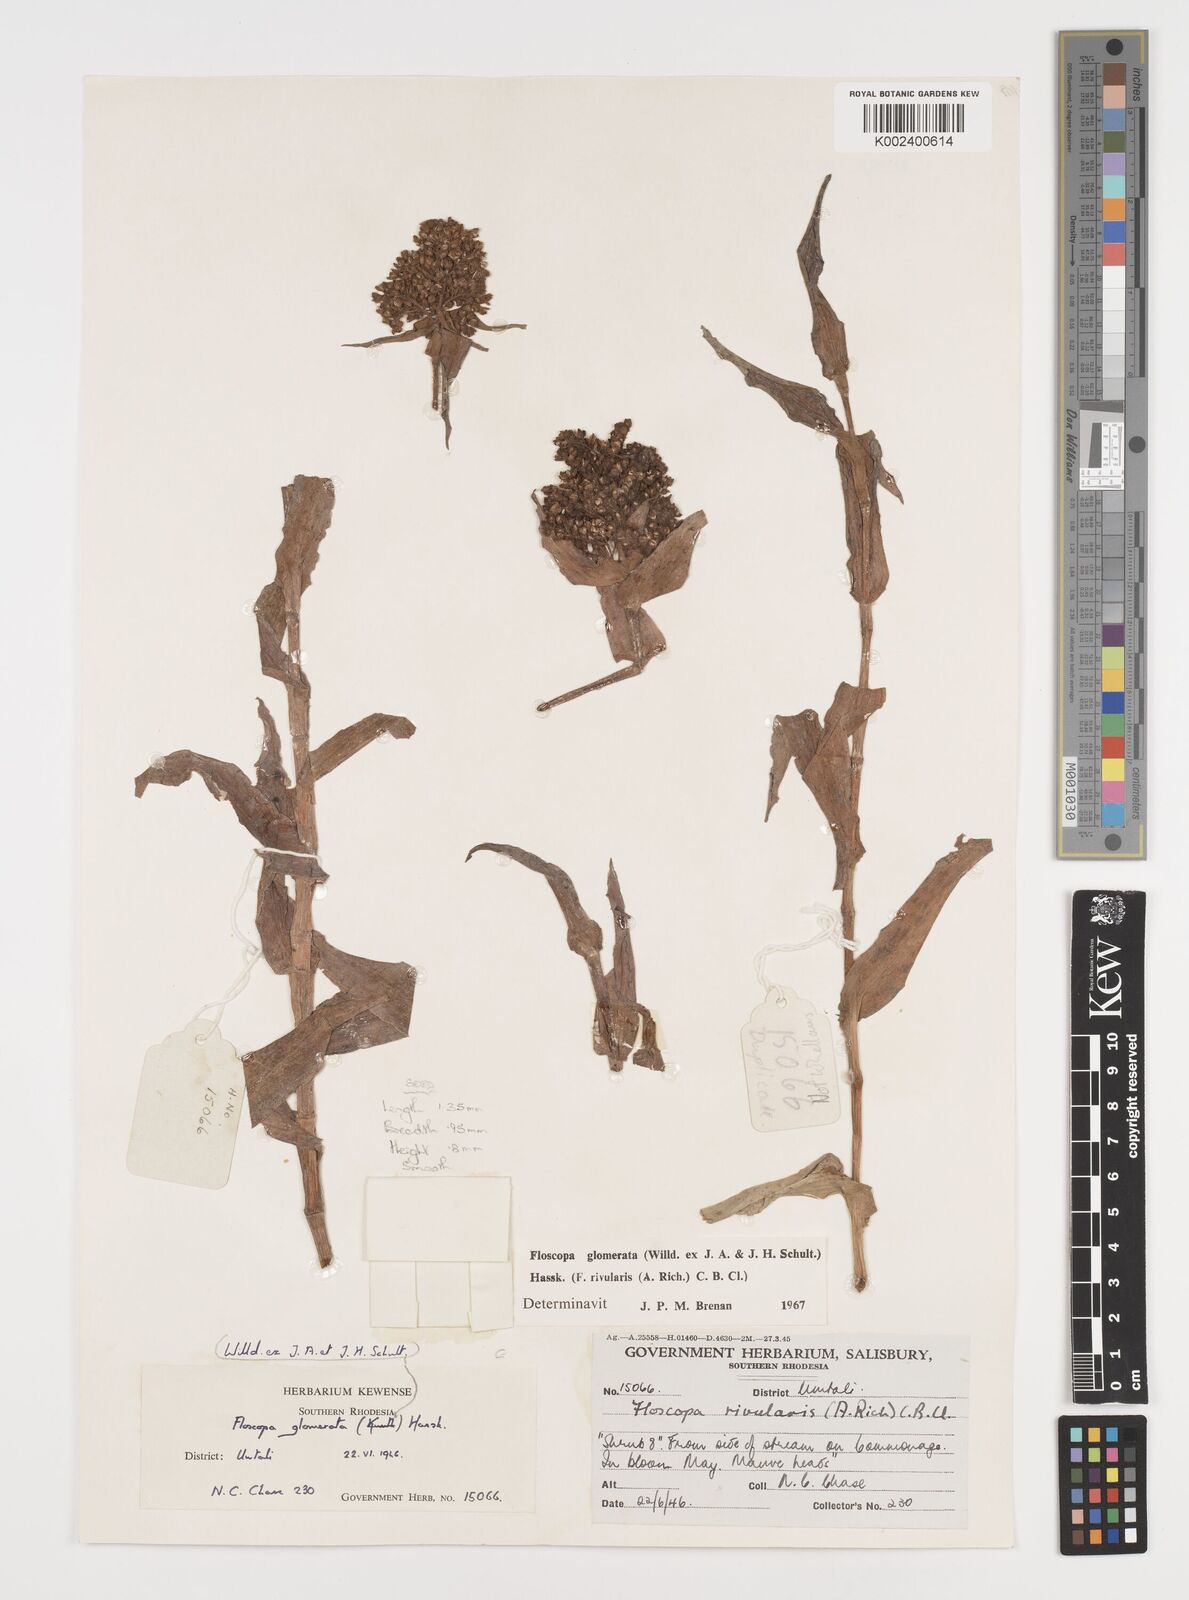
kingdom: Plantae
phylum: Tracheophyta
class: Liliopsida
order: Commelinales
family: Commelinaceae
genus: Floscopa
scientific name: Floscopa glomerata
